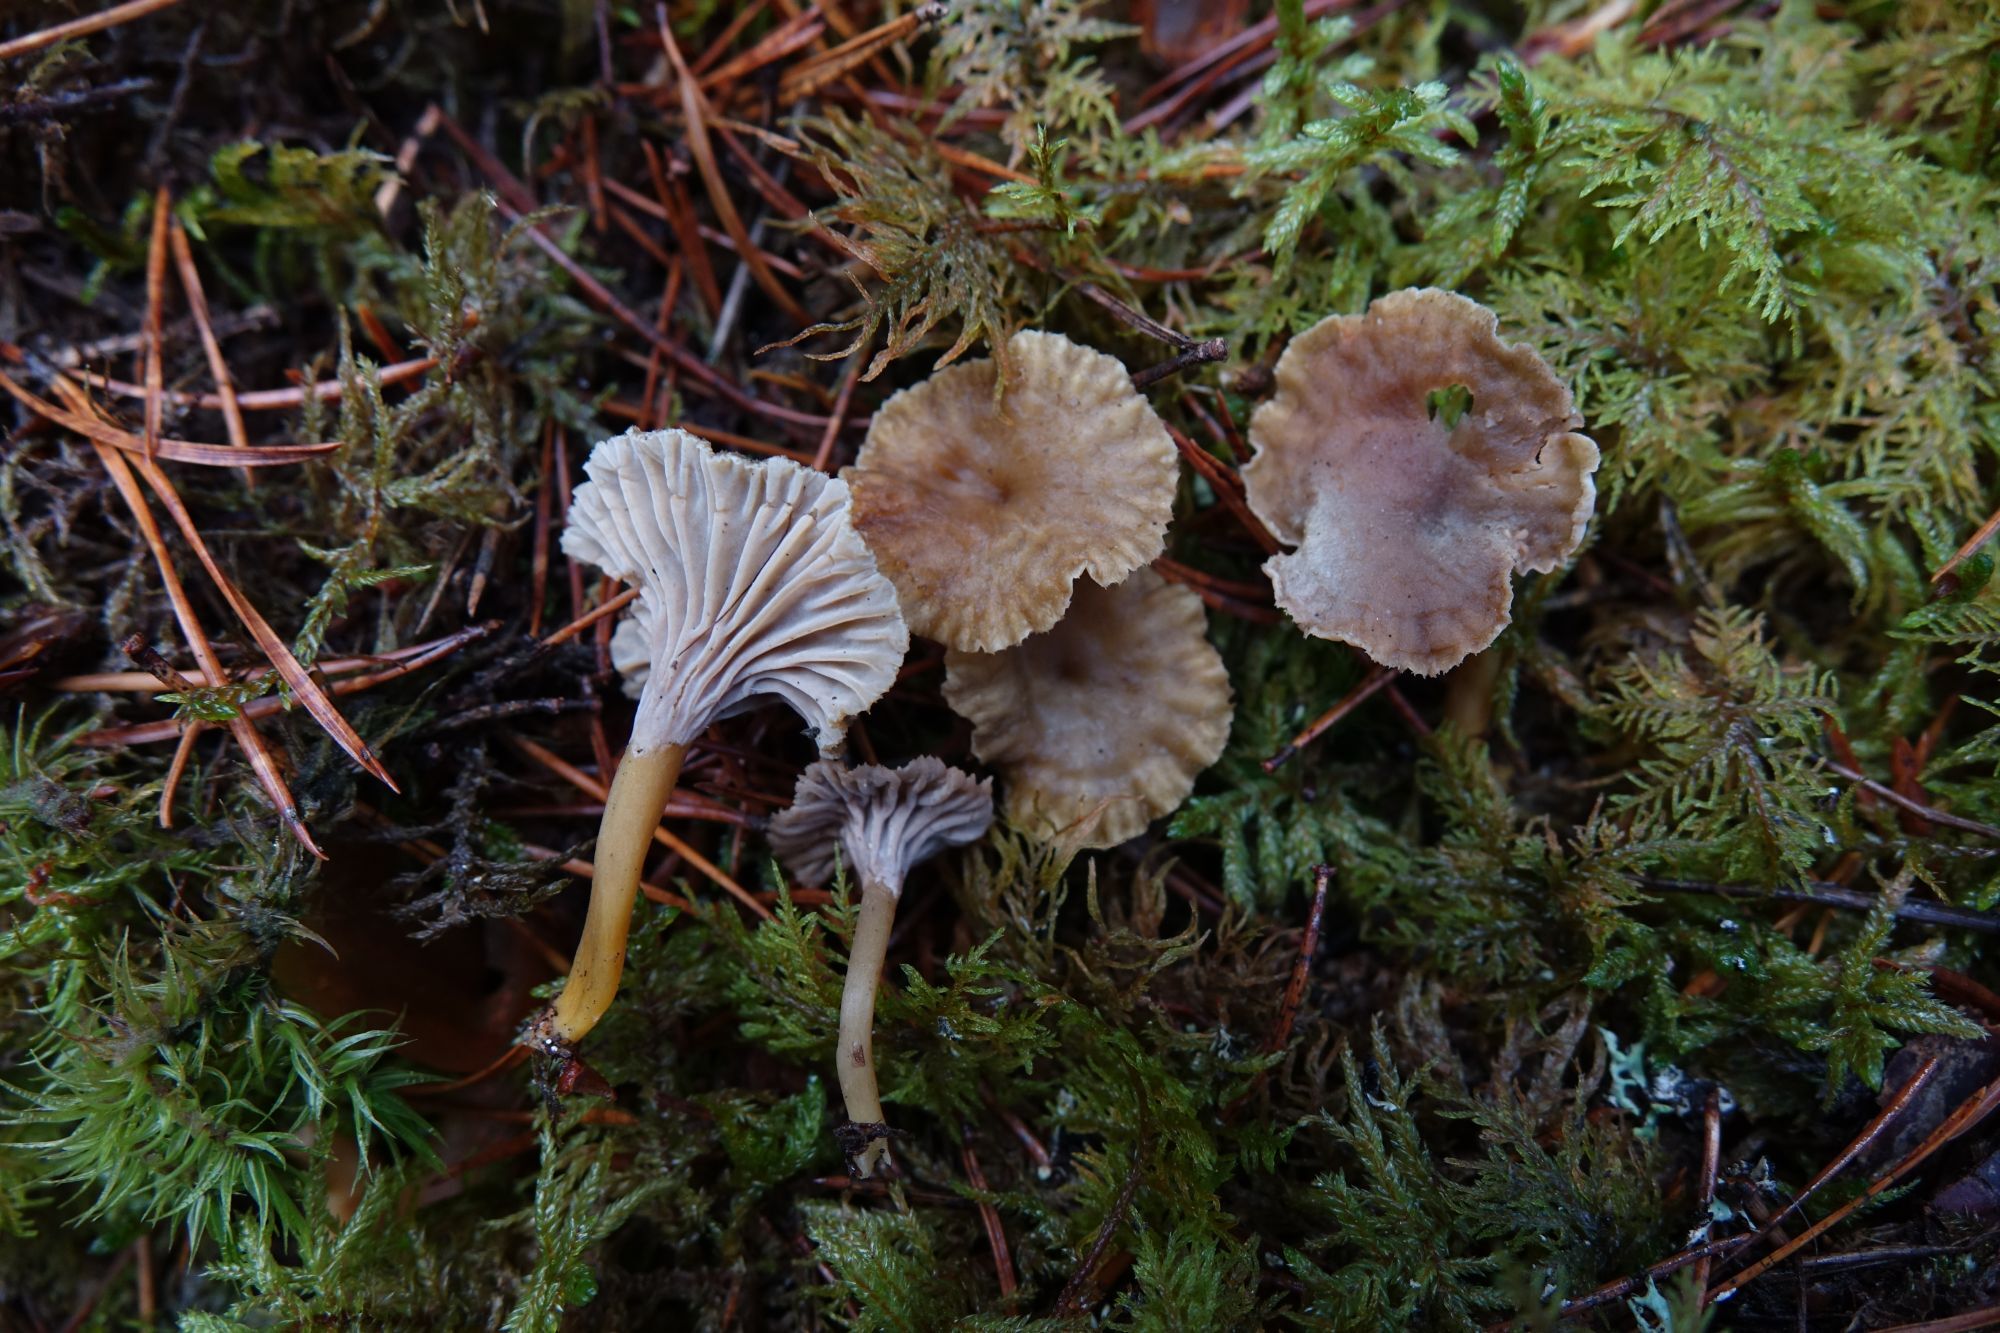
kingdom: Fungi
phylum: Basidiomycota
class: Agaricomycetes
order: Cantharellales
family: Hydnaceae
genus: Craterellus
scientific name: Craterellus tubaeformis
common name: Yellowfoot
